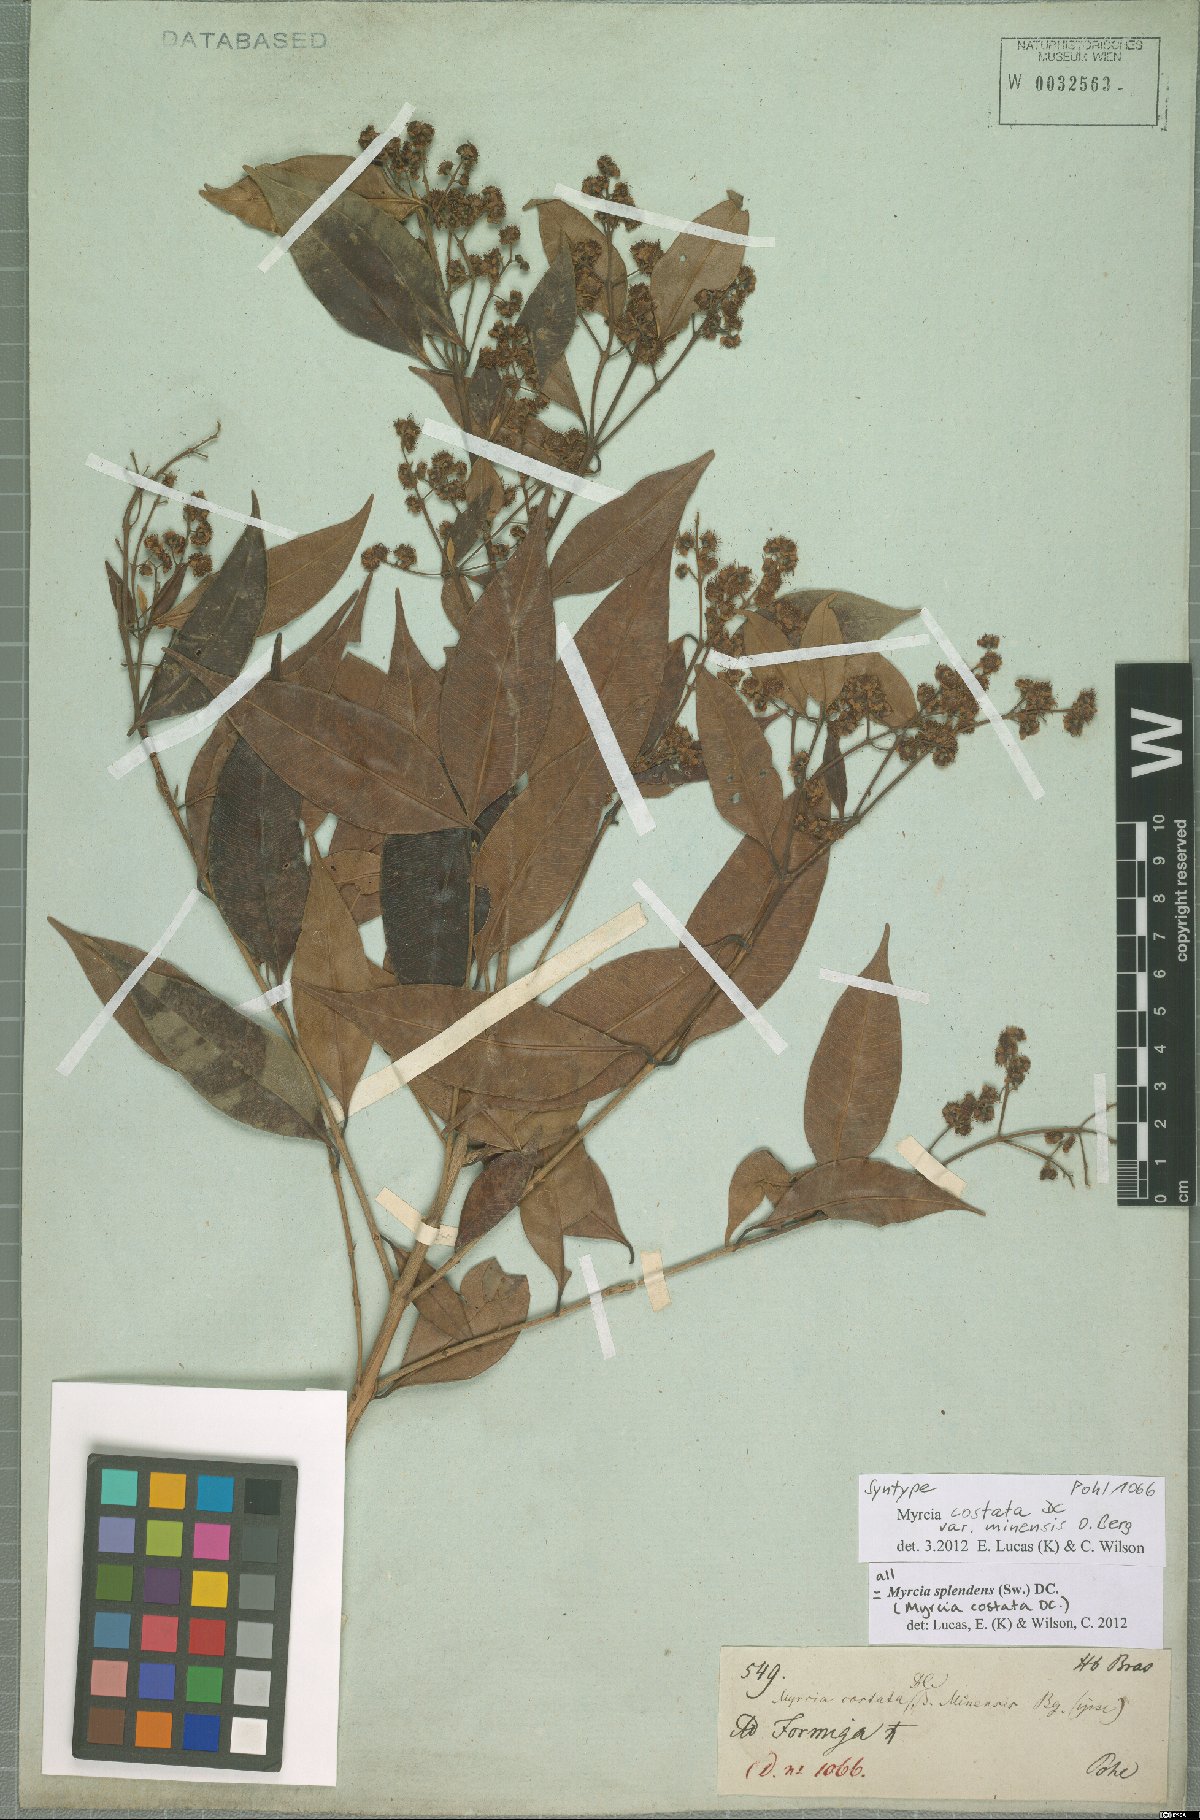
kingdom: Plantae
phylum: Tracheophyta
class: Magnoliopsida
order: Myrtales
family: Myrtaceae
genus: Myrcia
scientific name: Myrcia splendens
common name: Surinam cherry
